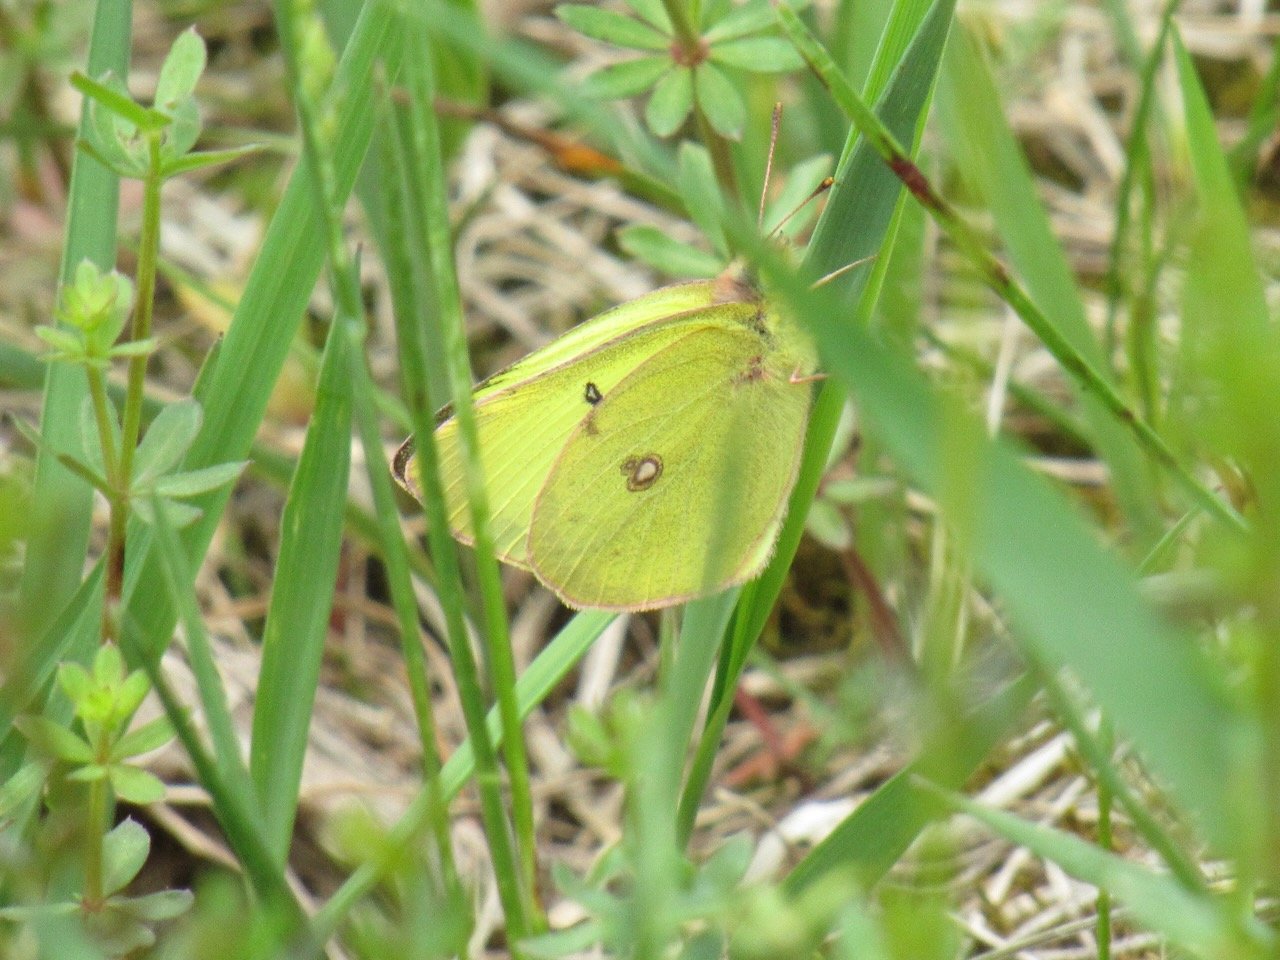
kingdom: Animalia
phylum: Arthropoda
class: Insecta
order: Lepidoptera
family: Pieridae
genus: Colias
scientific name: Colias philodice
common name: Clouded Sulphur
